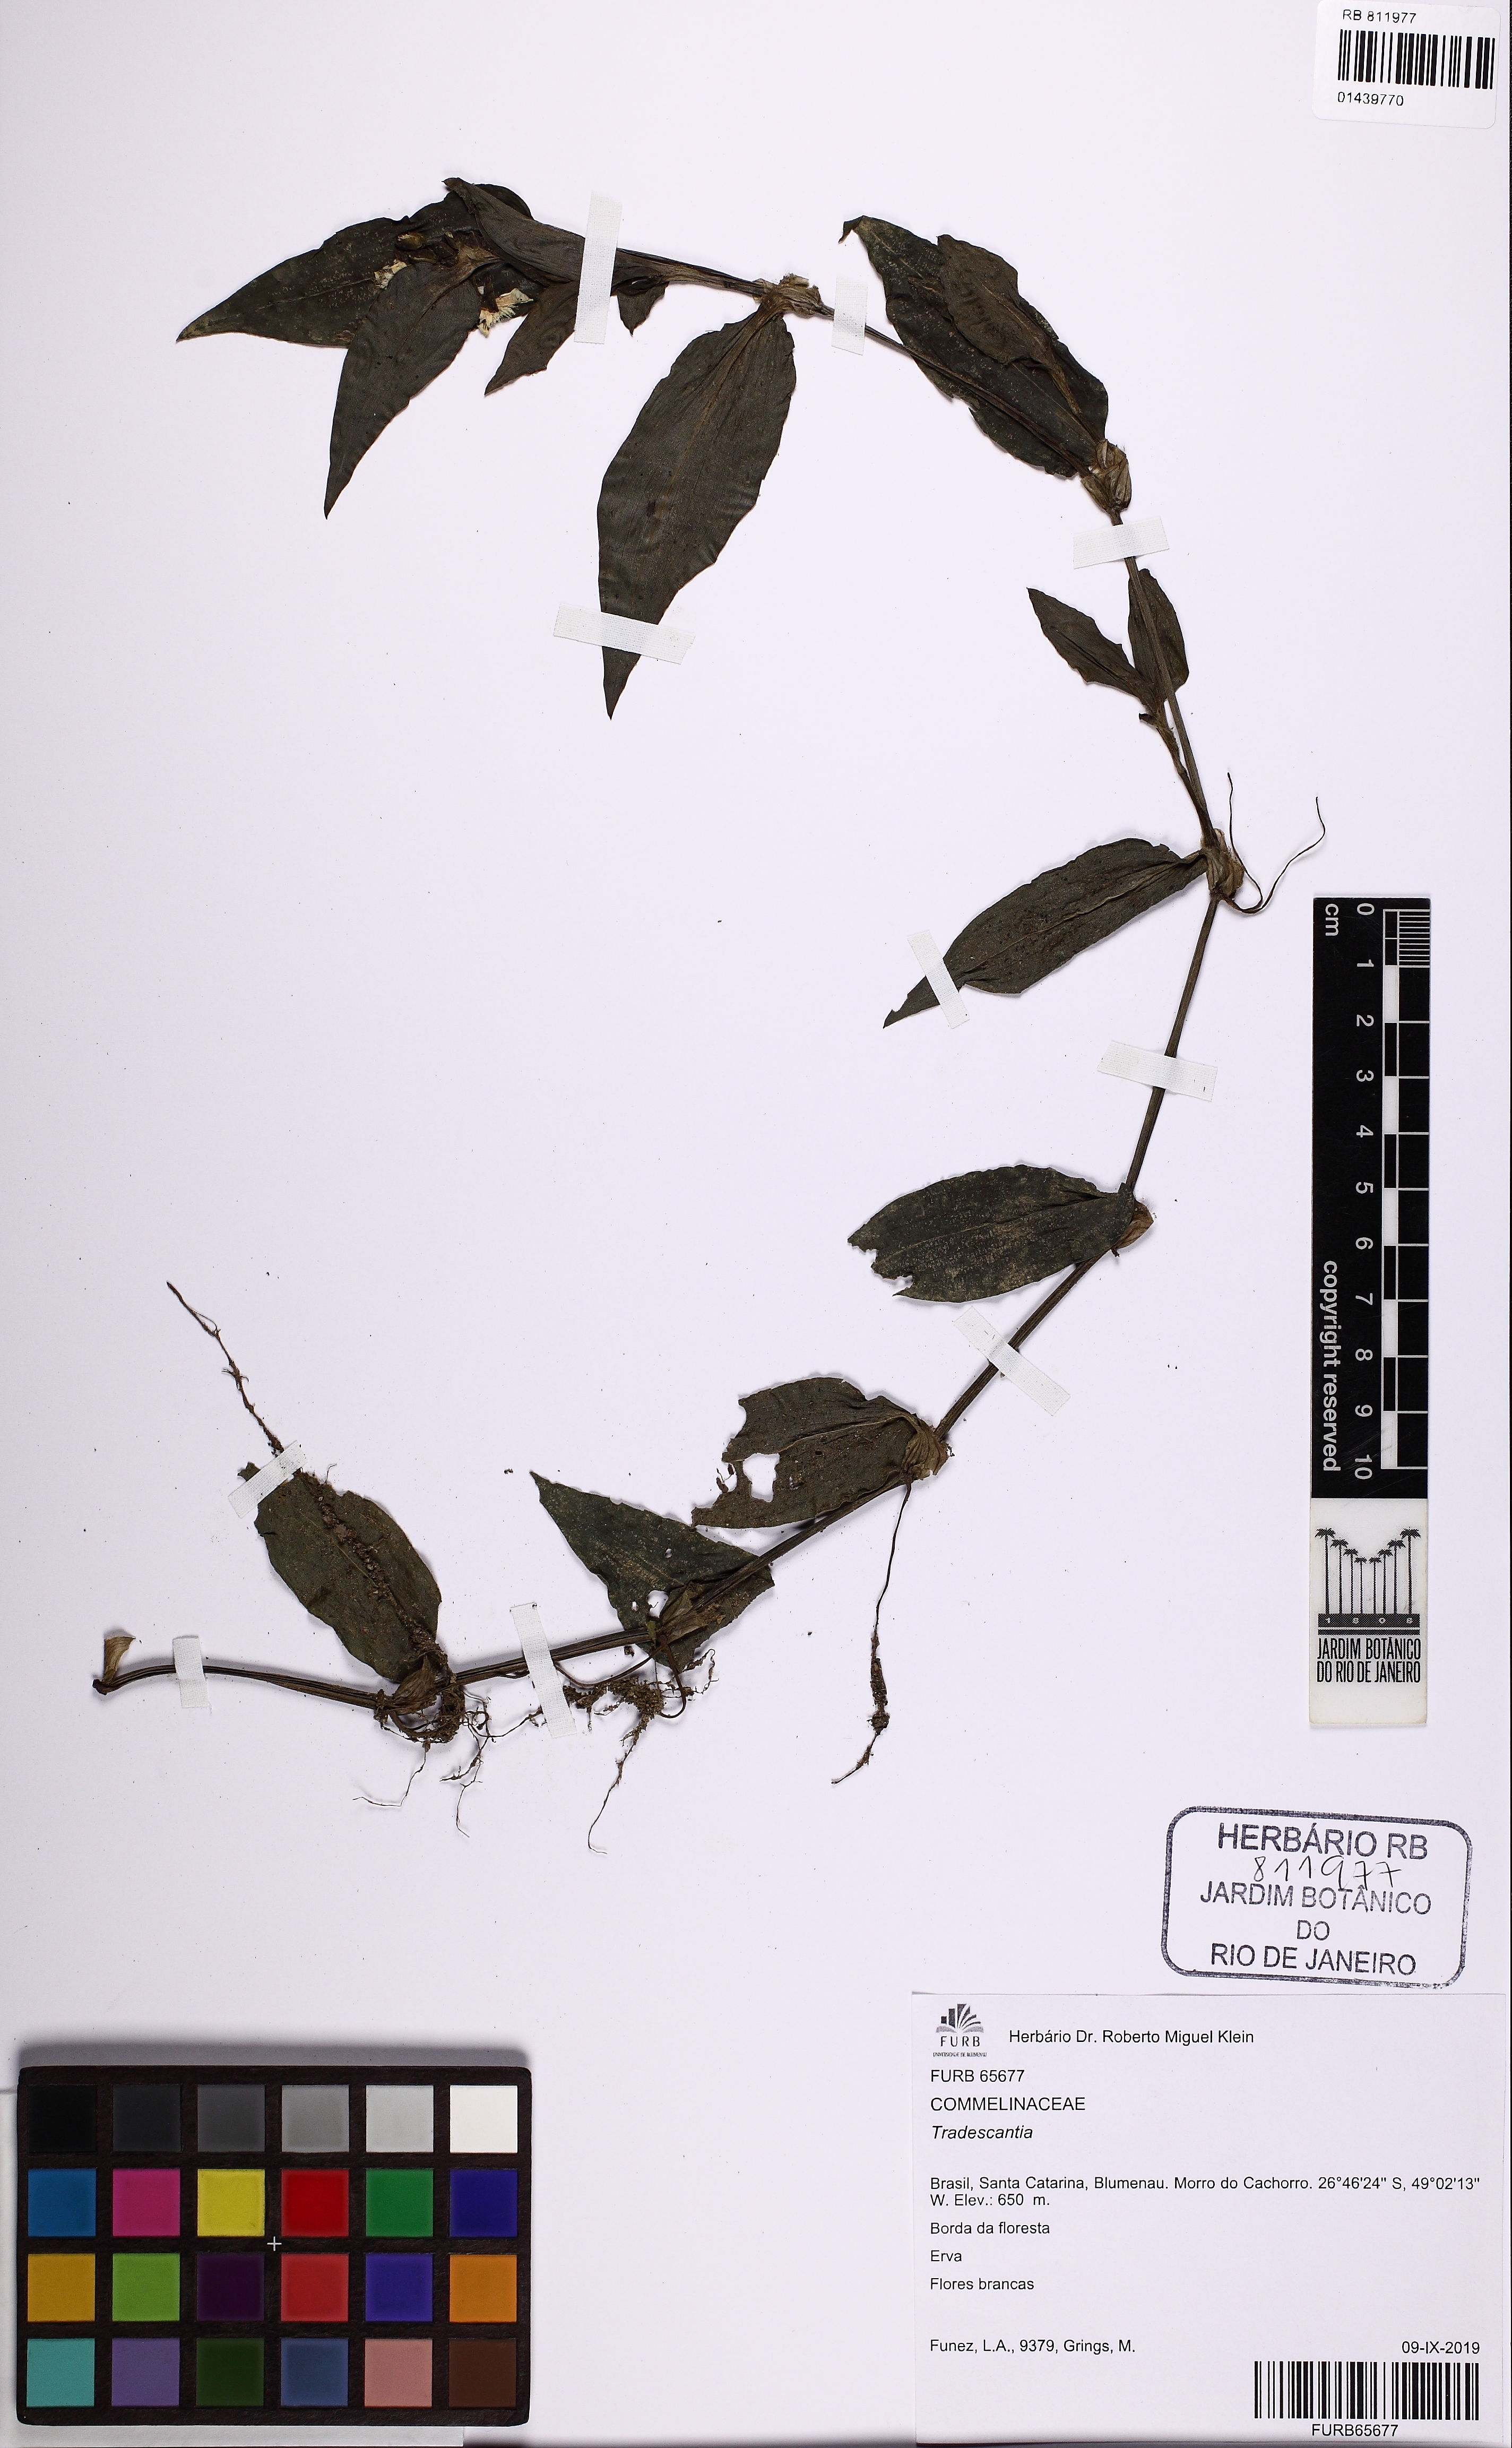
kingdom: Plantae
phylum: Tracheophyta
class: Liliopsida
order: Commelinales
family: Commelinaceae
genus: Tradescantia
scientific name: Tradescantia
